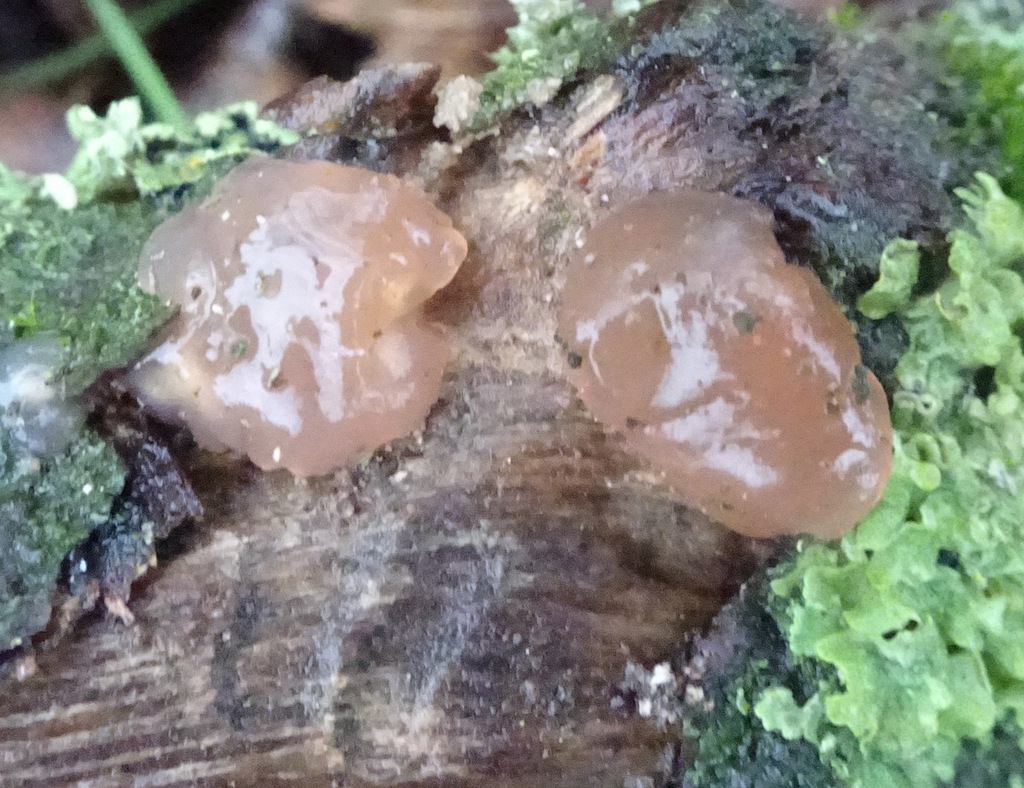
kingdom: Fungi
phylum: Basidiomycota
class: Agaricomycetes
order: Auriculariales
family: Hyaloriaceae
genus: Myxarium
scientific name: Myxarium
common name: bævretop
